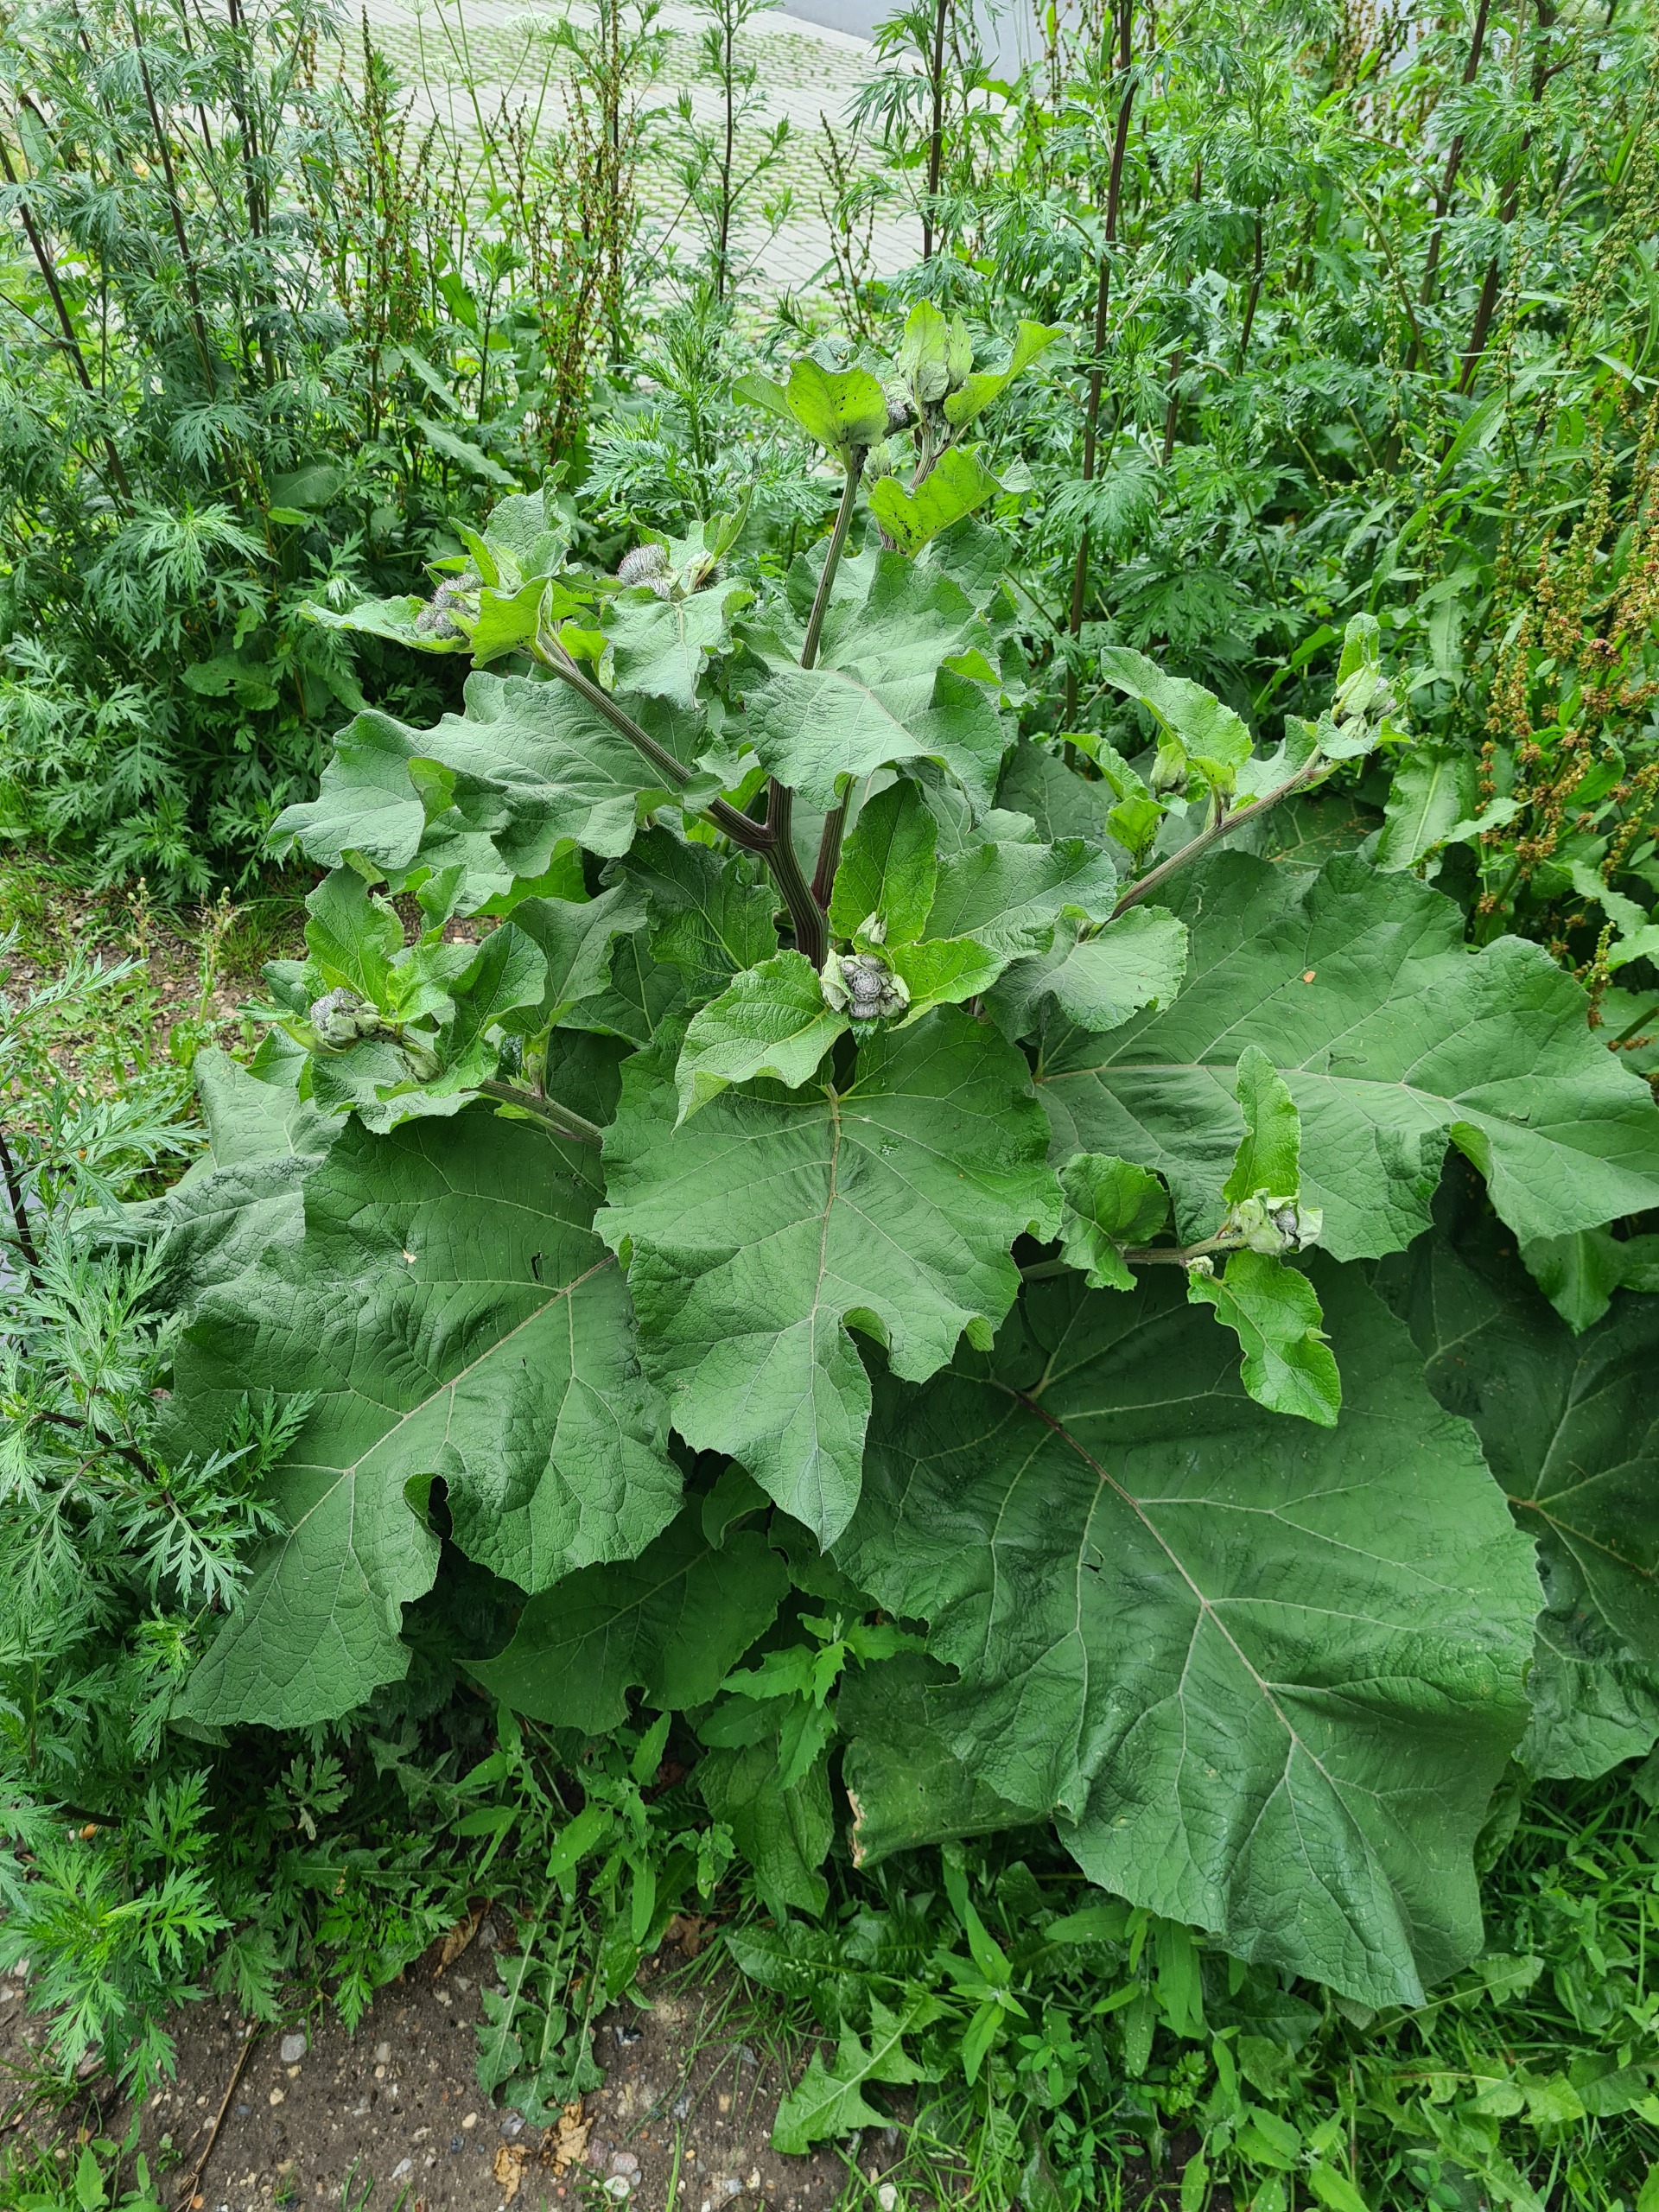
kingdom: Plantae
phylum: Tracheophyta
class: Magnoliopsida
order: Asterales
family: Asteraceae
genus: Arctium
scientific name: Arctium tomentosum
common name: Filtet burre
